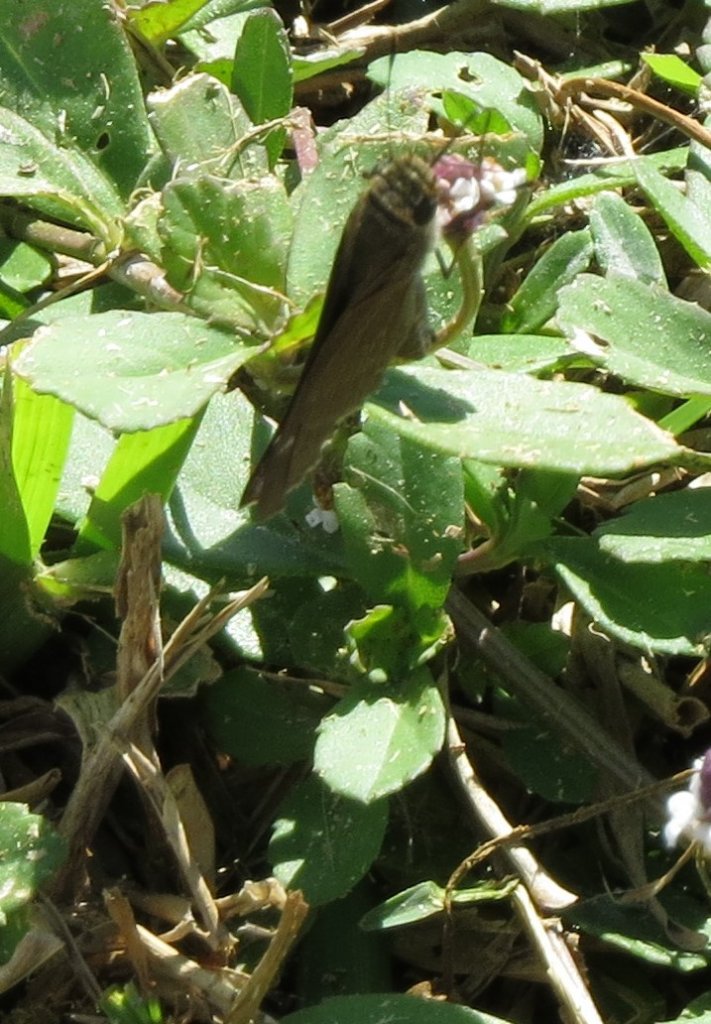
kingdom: Animalia
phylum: Arthropoda
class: Insecta
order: Lepidoptera
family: Hesperiidae
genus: Panoquina
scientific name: Panoquina ocola
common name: Ocola Skipper
